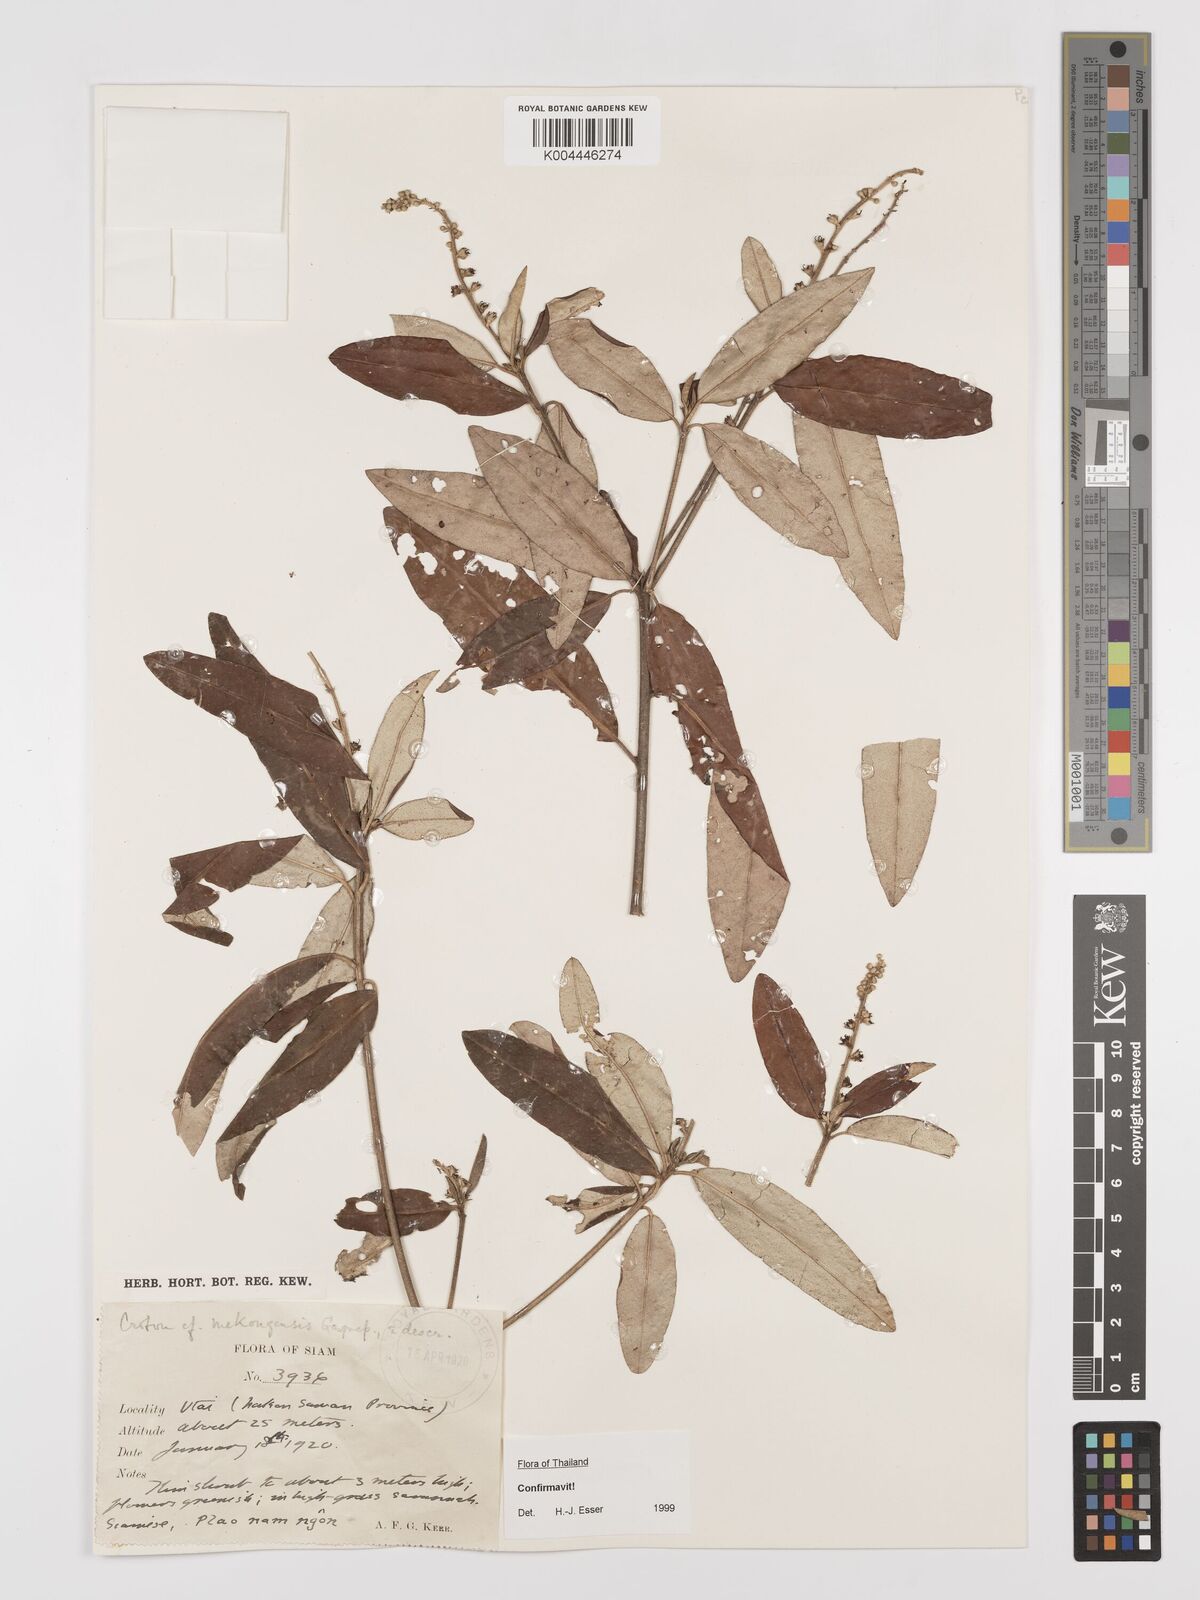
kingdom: Plantae
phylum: Tracheophyta
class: Magnoliopsida
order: Malpighiales
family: Euphorbiaceae
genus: Croton
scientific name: Croton mekongensis
